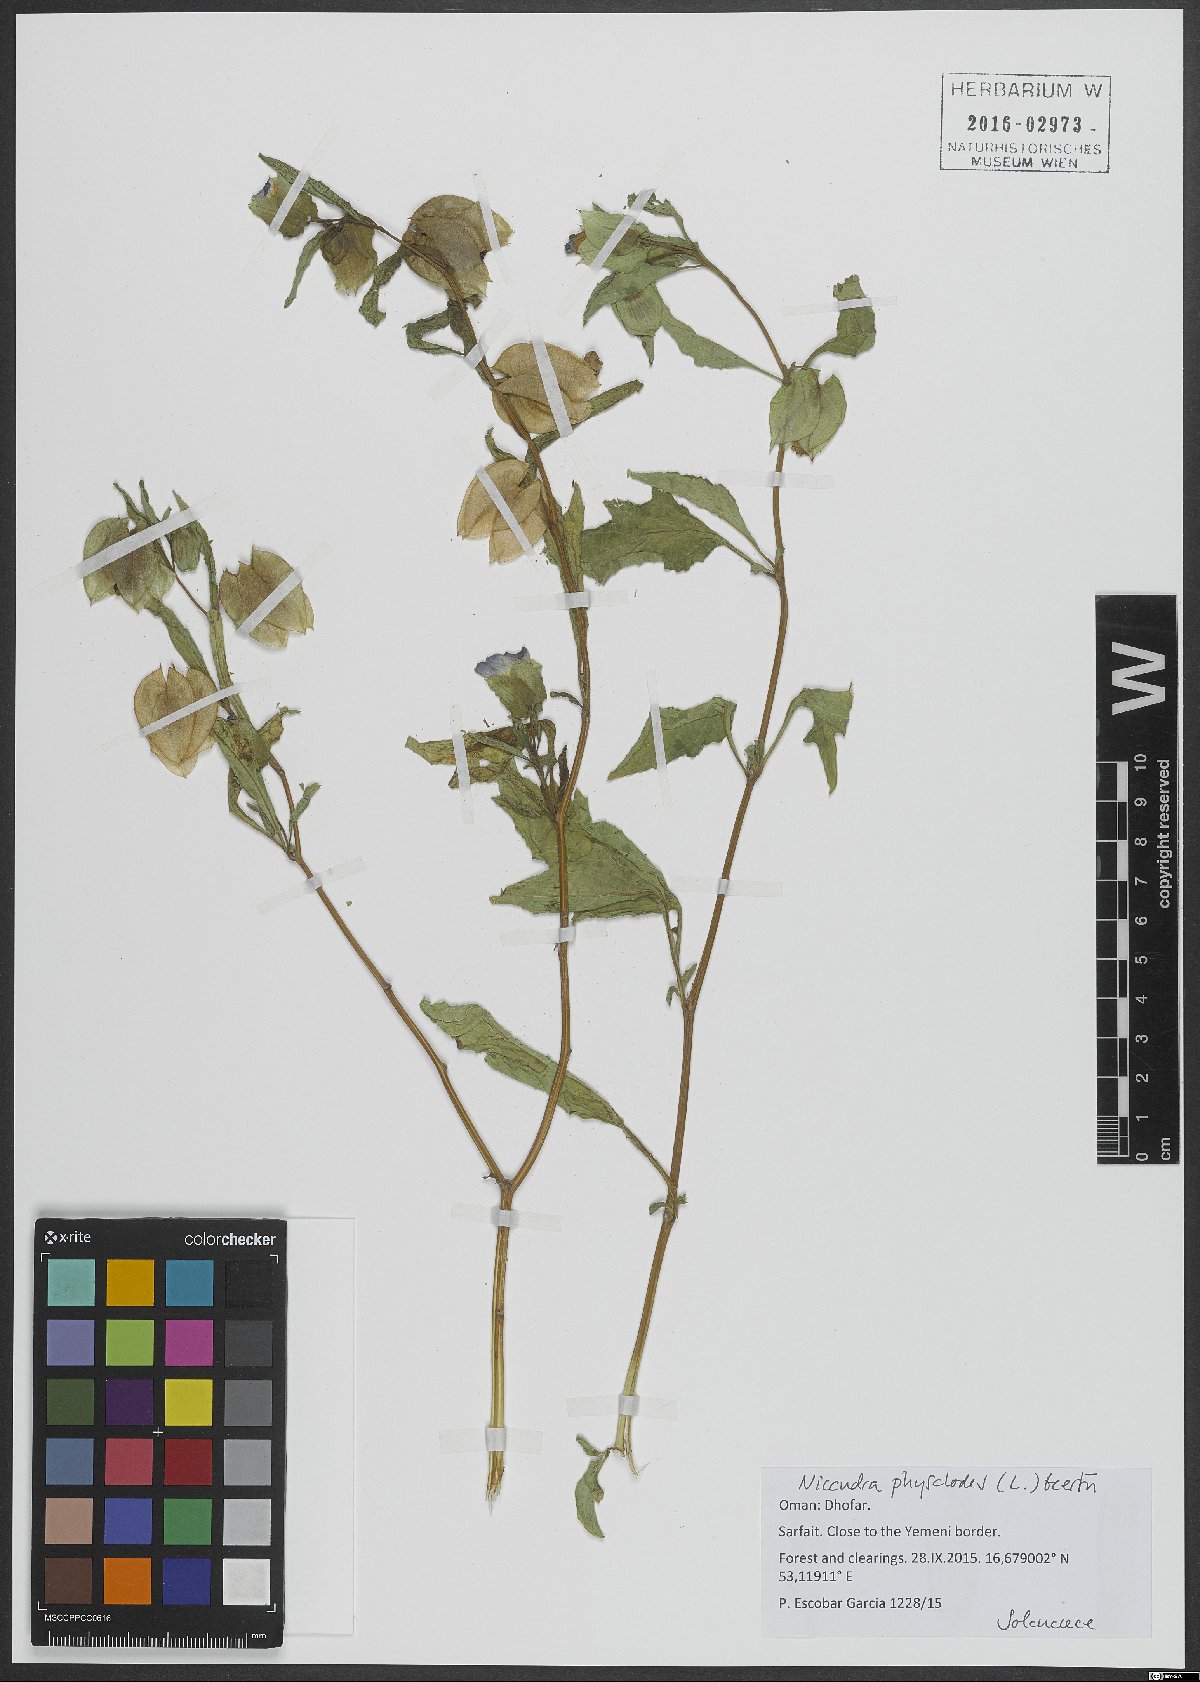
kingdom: Plantae
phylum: Tracheophyta
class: Magnoliopsida
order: Solanales
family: Solanaceae
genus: Nicandra
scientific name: Nicandra physalodes
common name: Apple-of-peru
